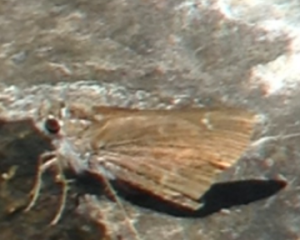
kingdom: Animalia
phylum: Arthropoda
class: Insecta
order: Lepidoptera
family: Hesperiidae
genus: Nastra
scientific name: Nastra julia
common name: Julia's Skipper
